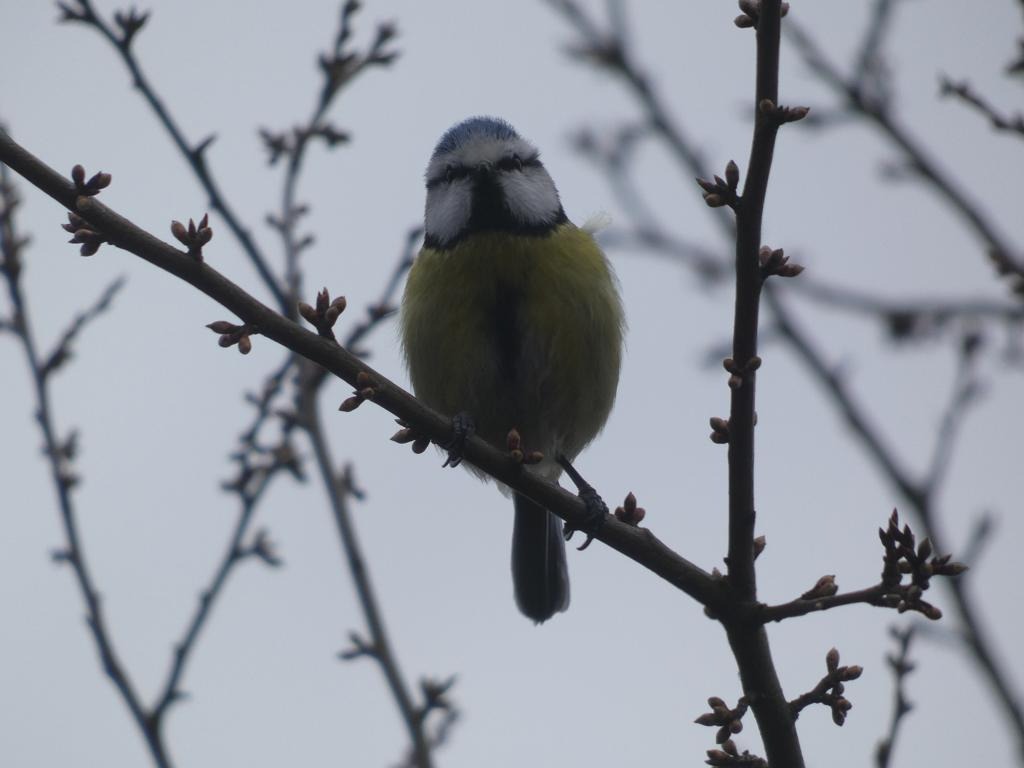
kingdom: Animalia
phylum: Chordata
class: Aves
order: Passeriformes
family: Paridae
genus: Cyanistes
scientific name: Cyanistes caeruleus
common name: Blåmejse
